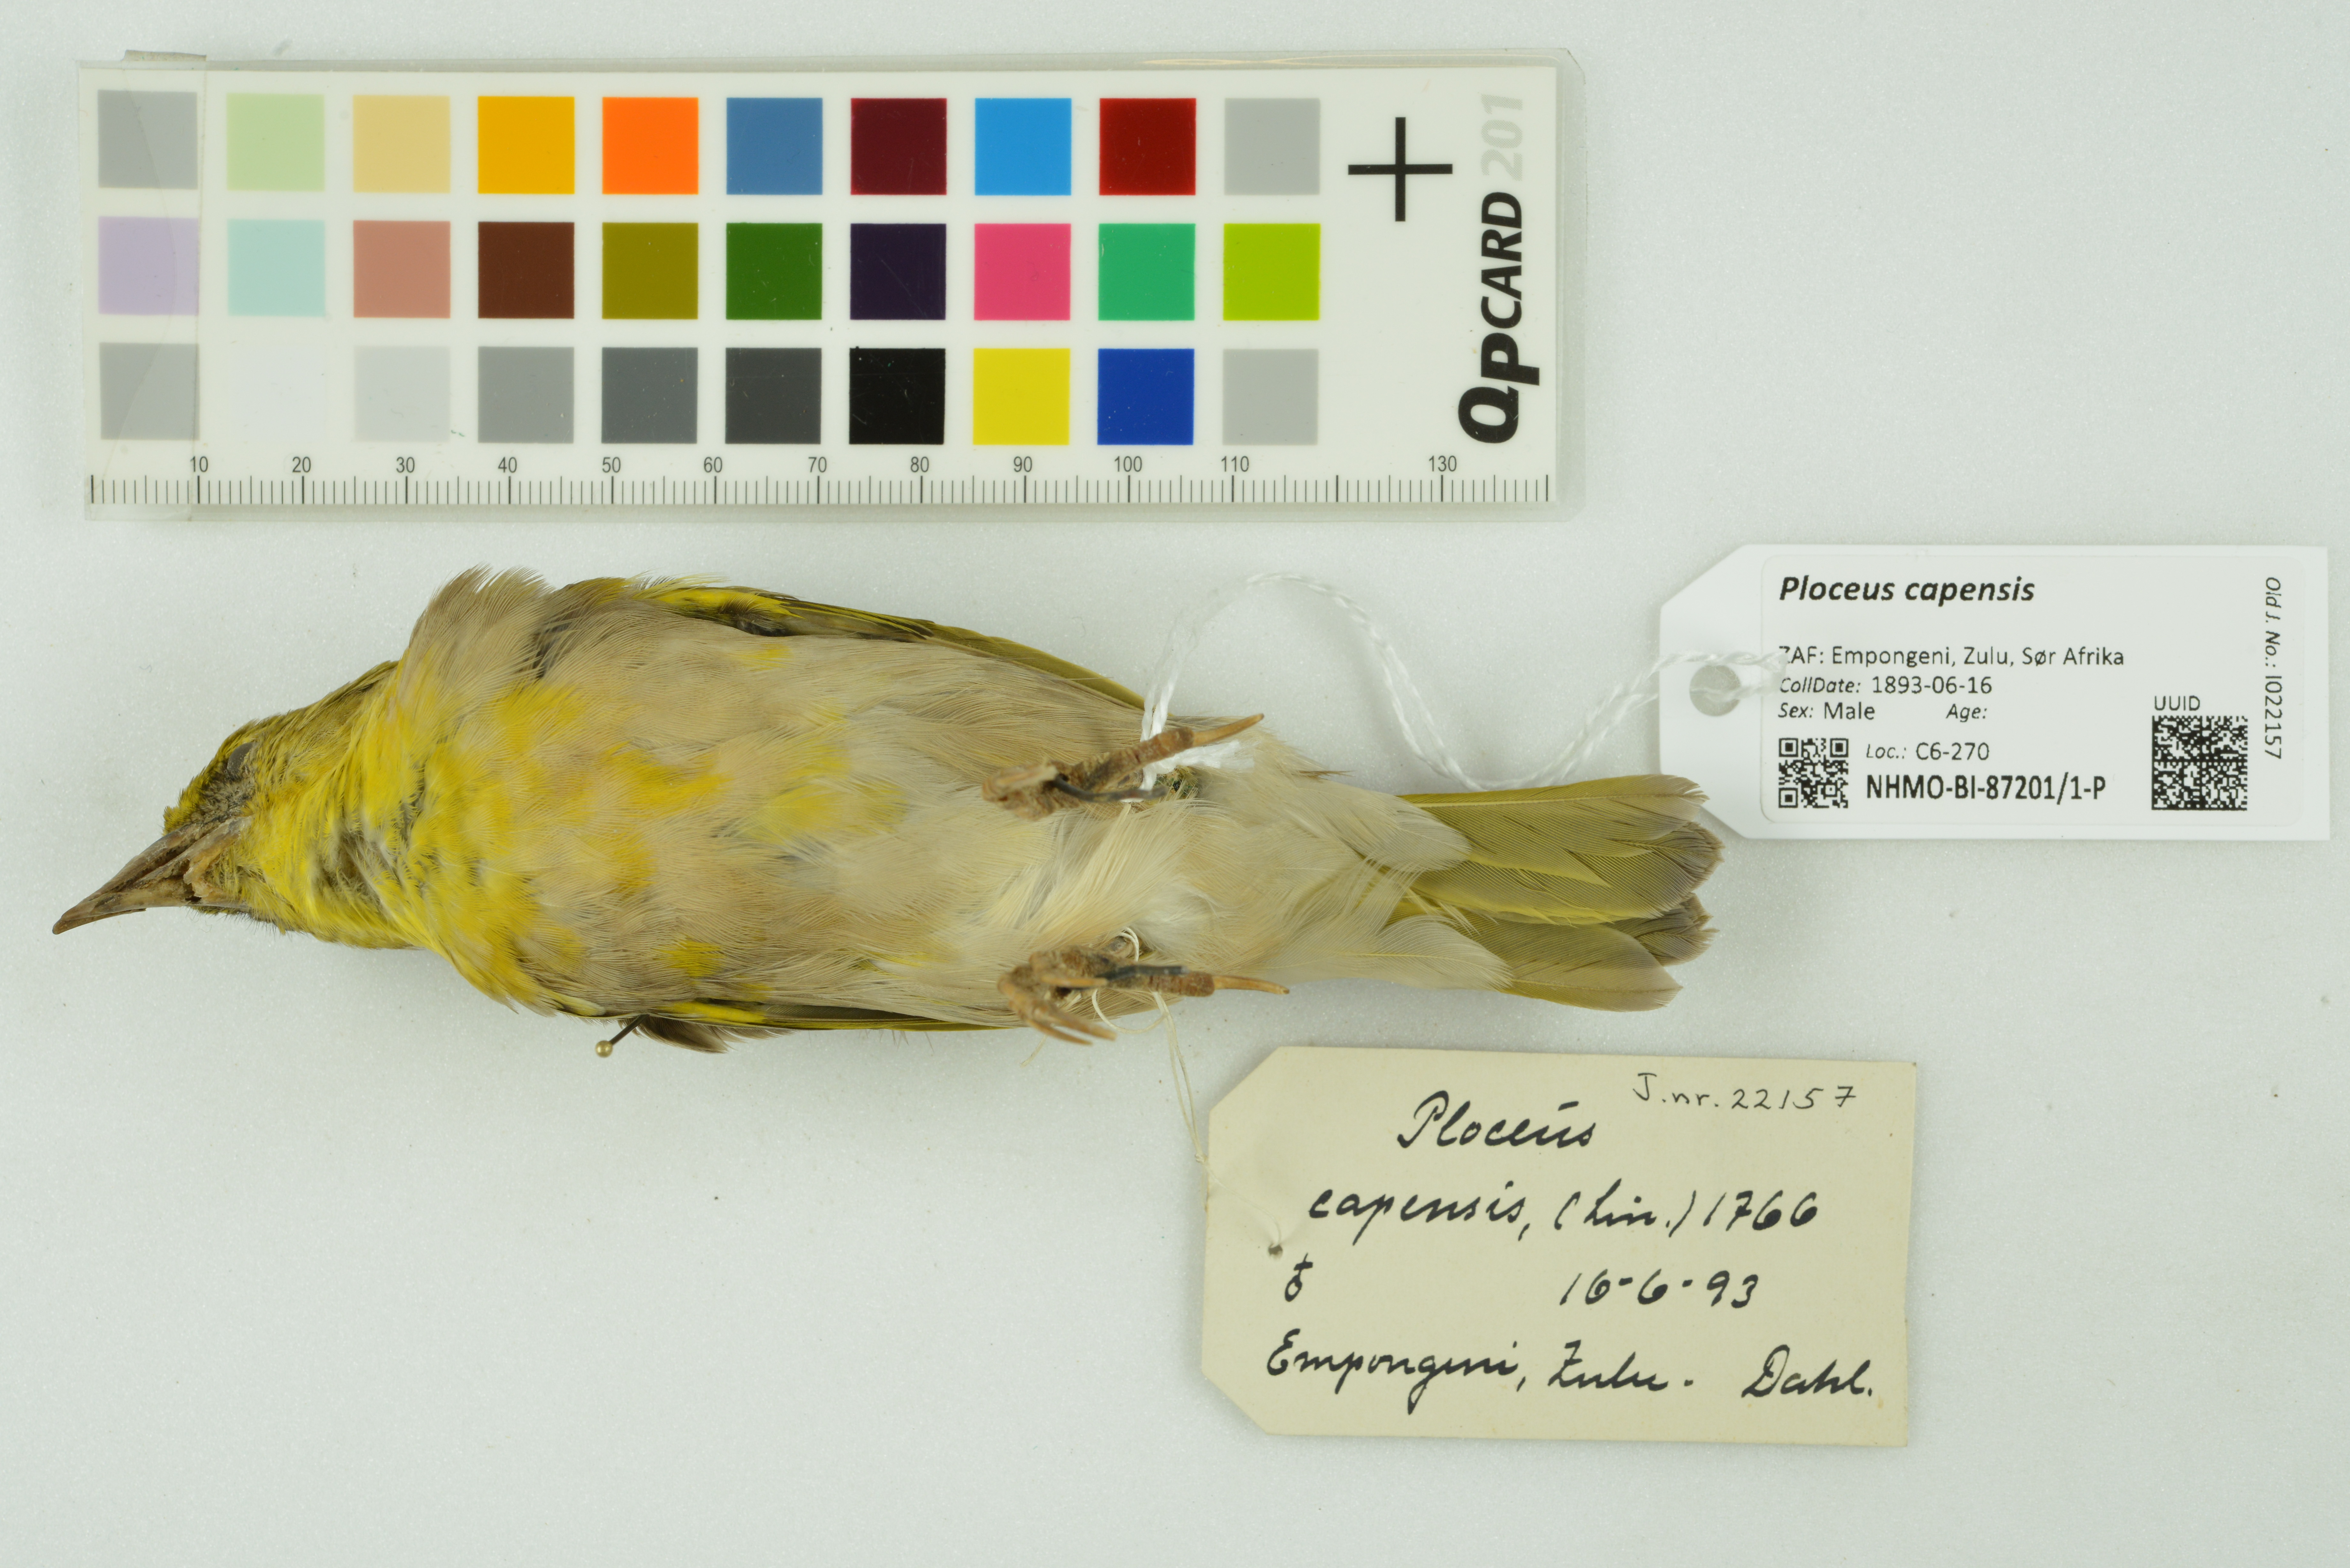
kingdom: Animalia
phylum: Chordata
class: Aves
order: Passeriformes
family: Ploceidae
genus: Ploceus
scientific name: Ploceus capensis
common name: Cape weaver
